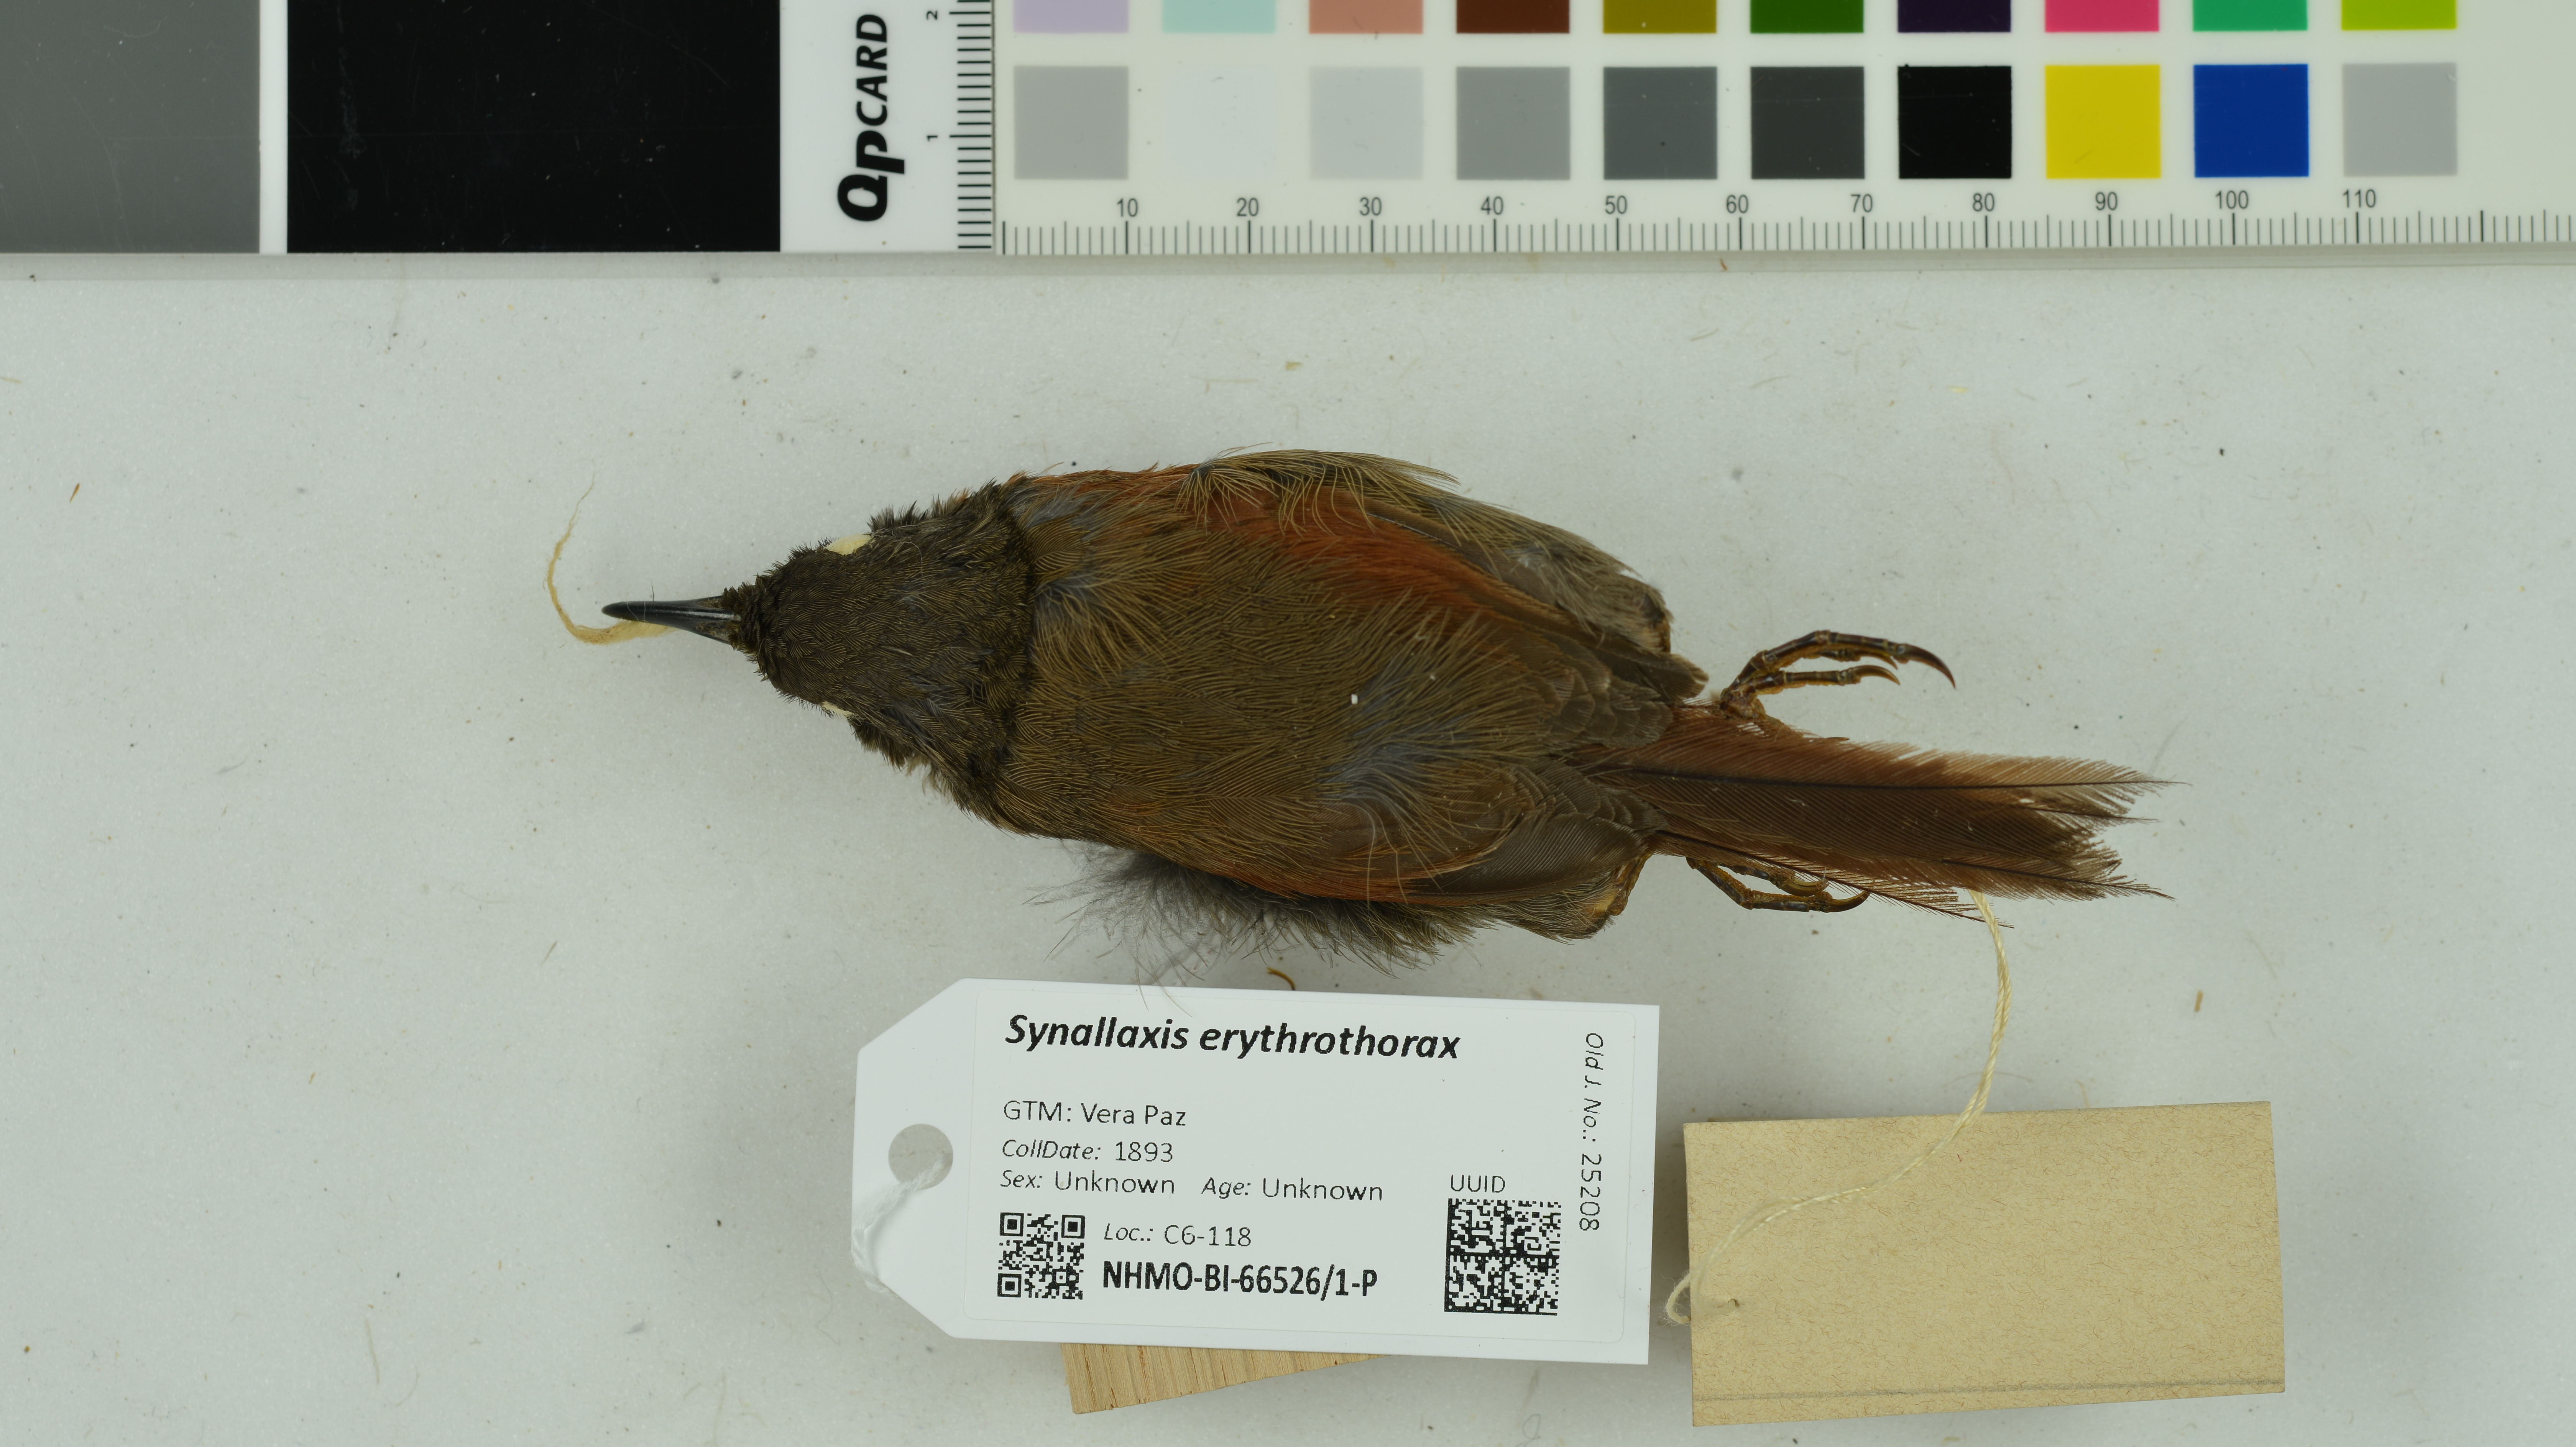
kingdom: Animalia
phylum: Chordata
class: Aves
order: Passeriformes
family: Furnariidae
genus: Synallaxis
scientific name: Synallaxis erythrothorax
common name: Rufous-breasted spinetail
